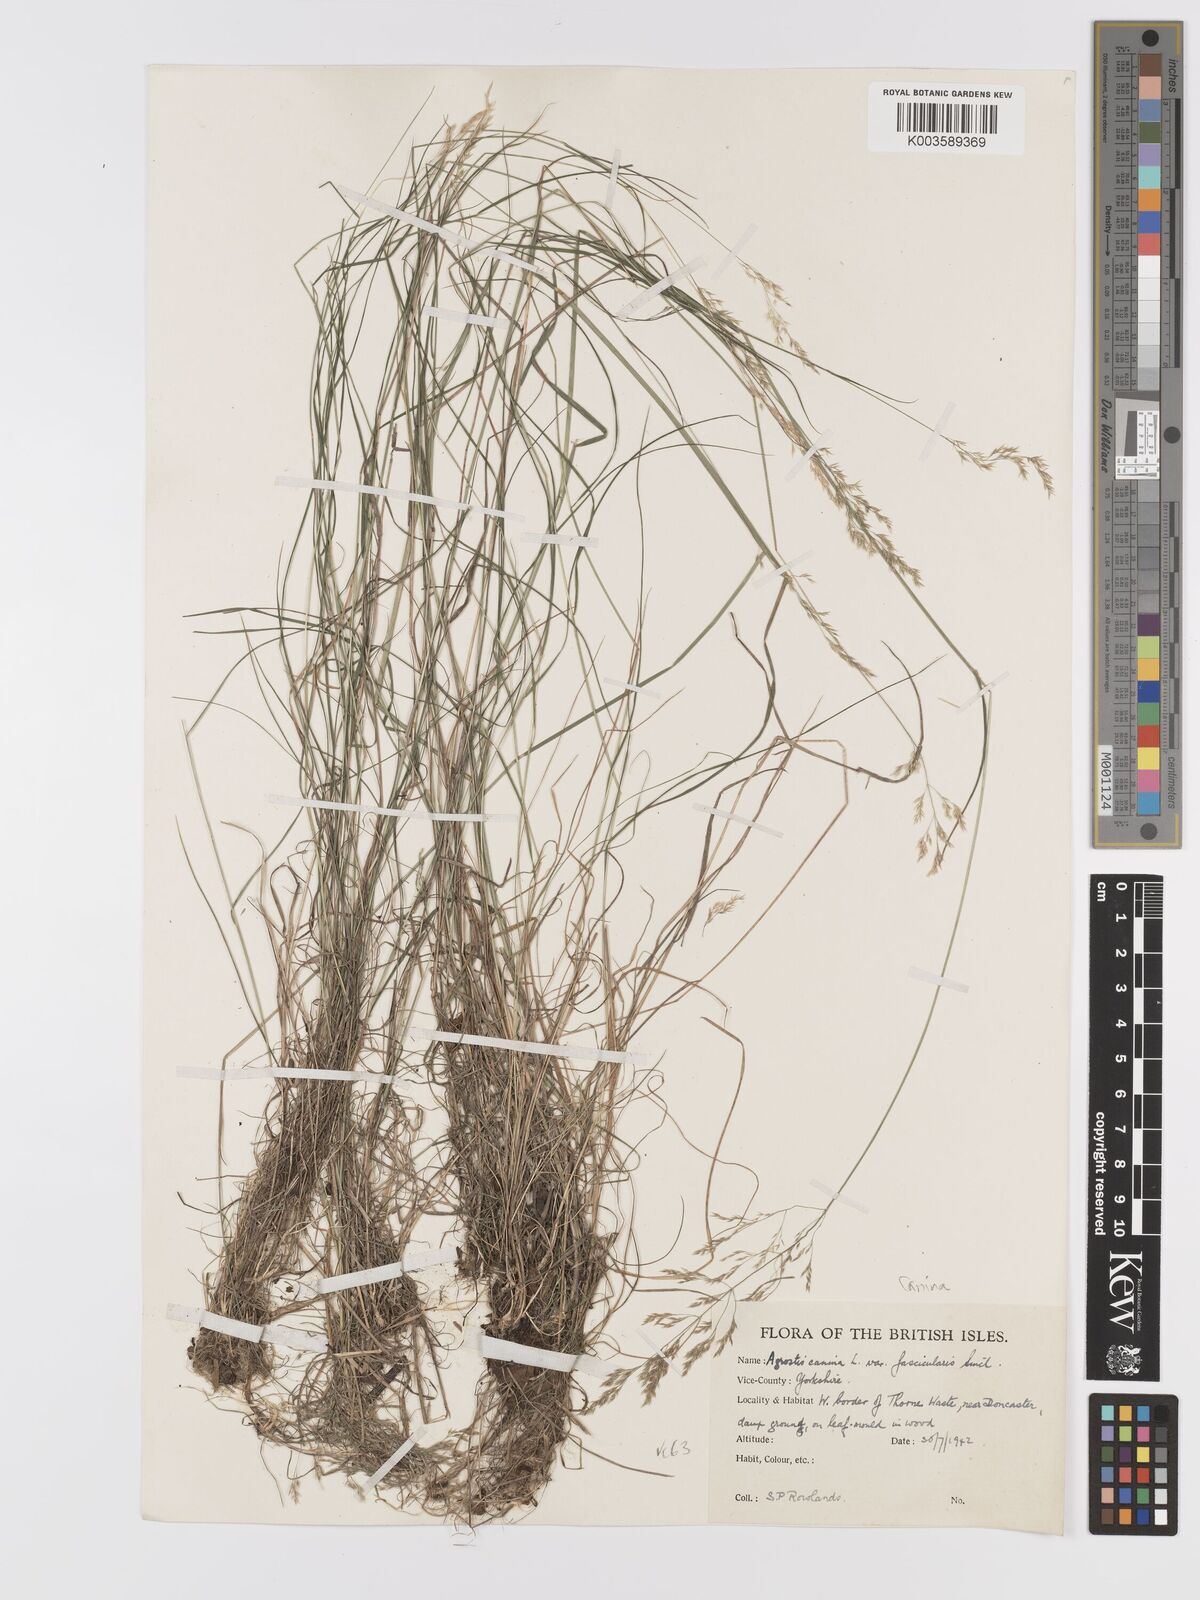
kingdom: Plantae
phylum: Tracheophyta
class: Liliopsida
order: Poales
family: Poaceae
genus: Agrostis
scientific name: Agrostis canina
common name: Velvet bent
